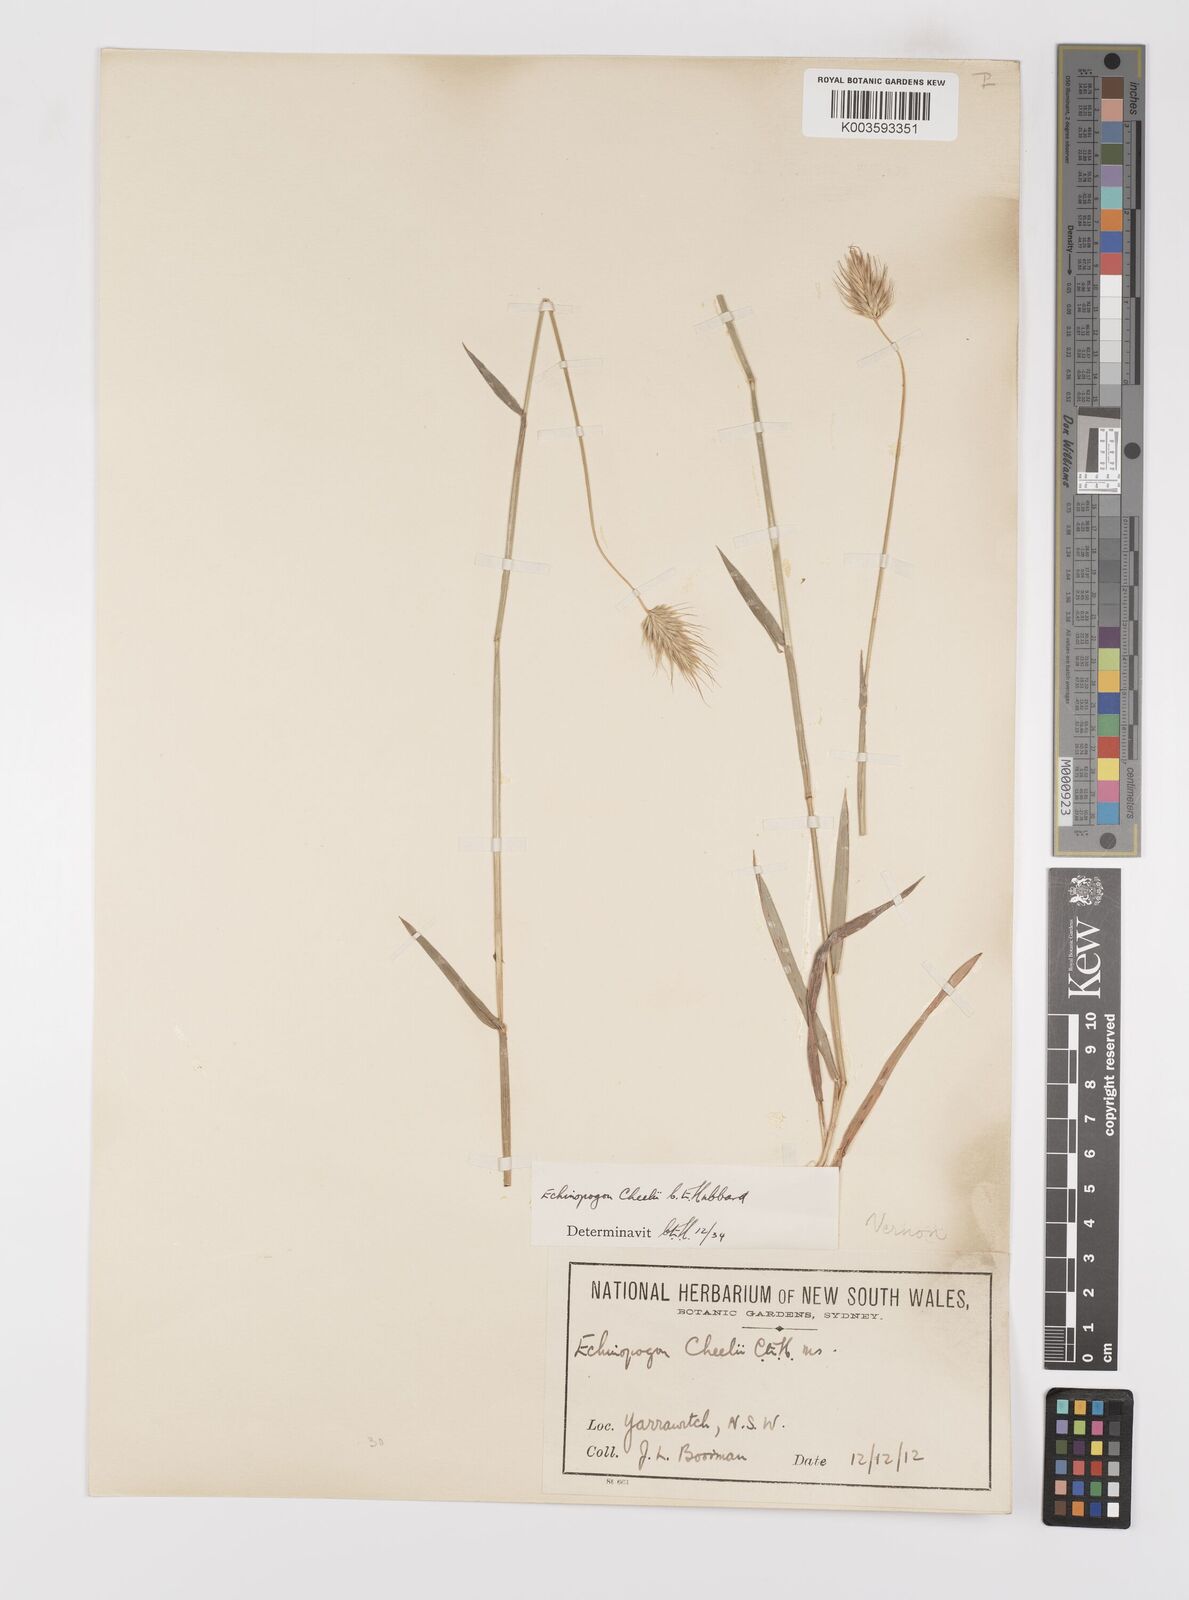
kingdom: Plantae
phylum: Tracheophyta
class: Liliopsida
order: Poales
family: Poaceae
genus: Echinopogon
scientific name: Echinopogon cheelii
